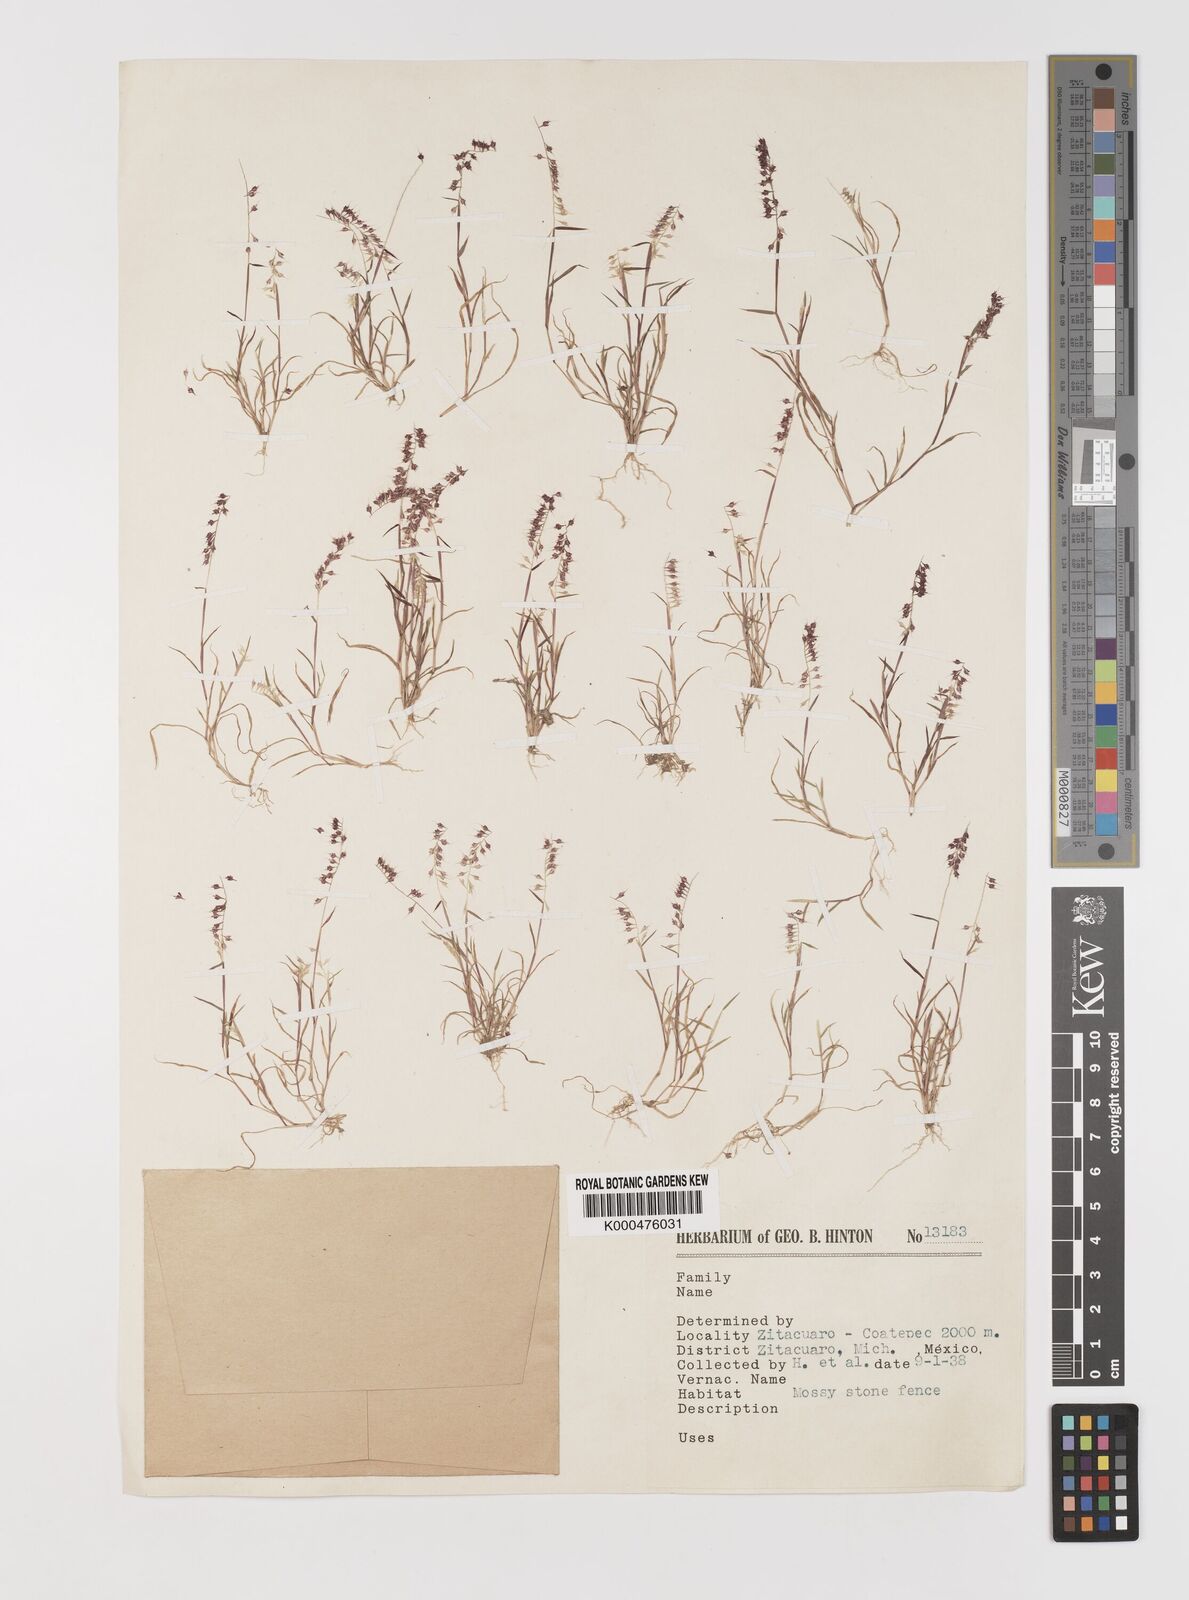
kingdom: Plantae
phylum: Tracheophyta
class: Liliopsida
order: Poales
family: Poaceae
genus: Muhlenbergia
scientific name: Muhlenbergia uniseta
